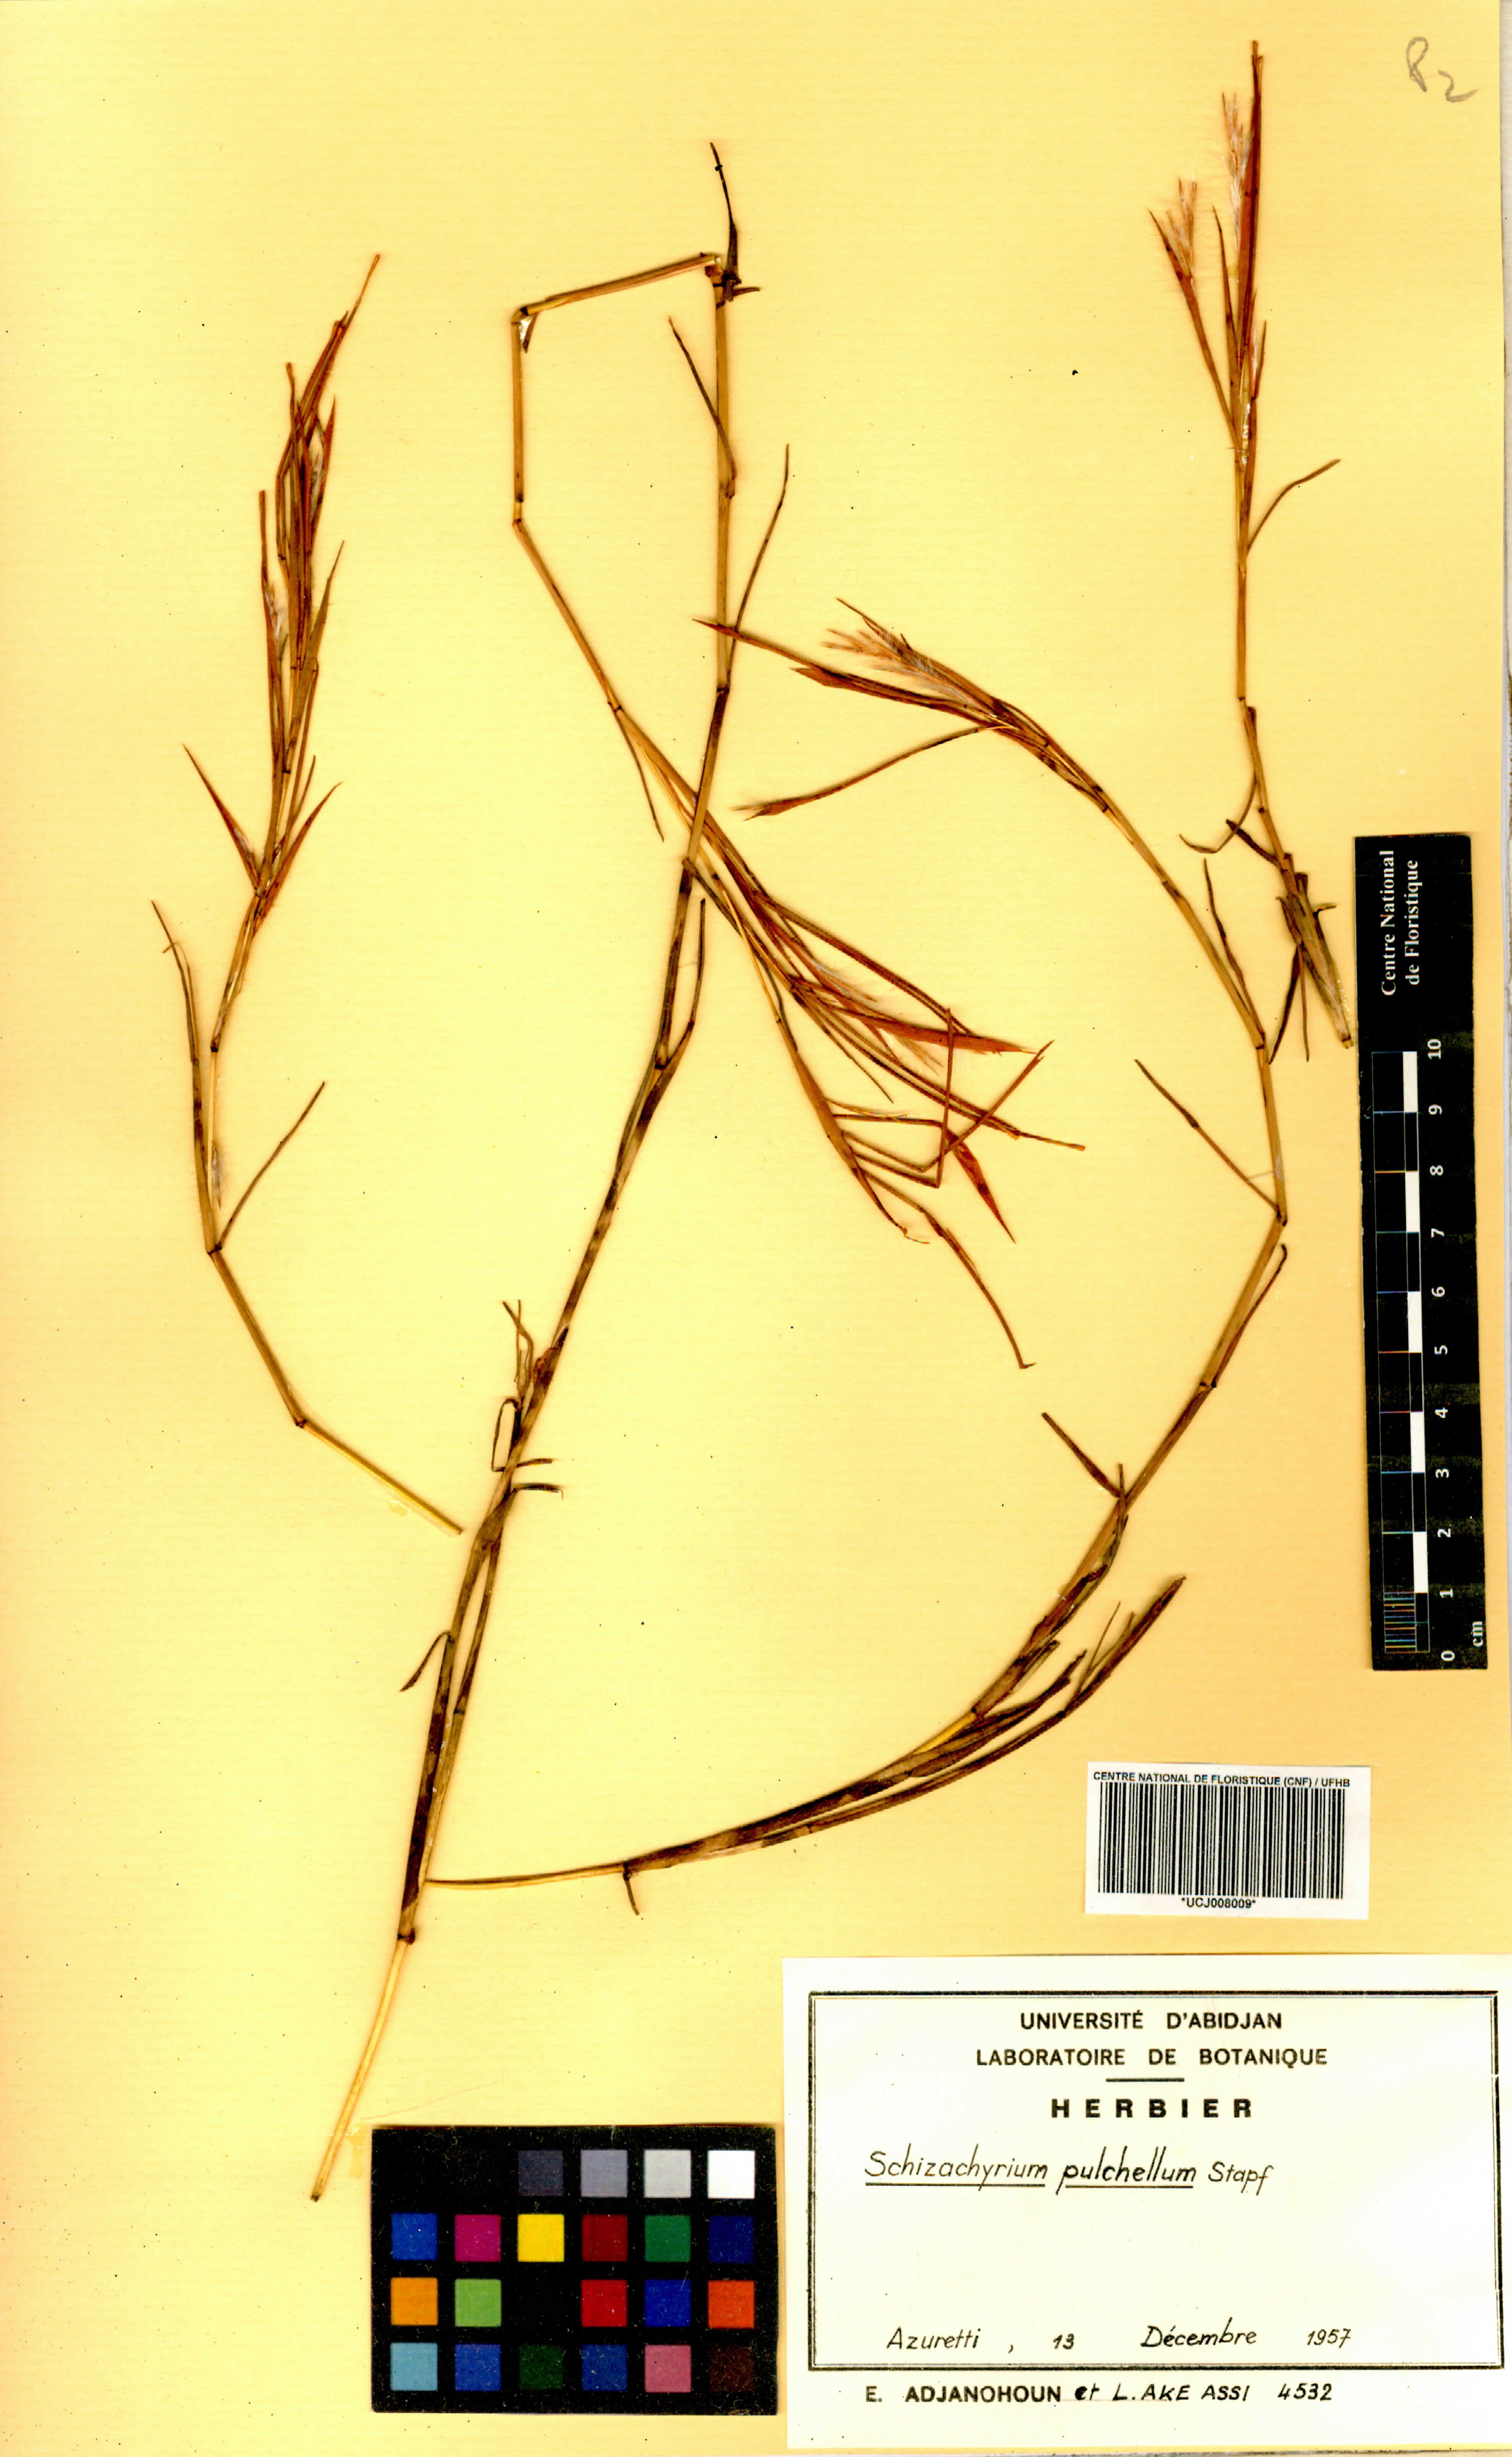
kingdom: Plantae
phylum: Tracheophyta
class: Liliopsida
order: Poales
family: Poaceae
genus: Schizachyrium
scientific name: Schizachyrium pulchellum
